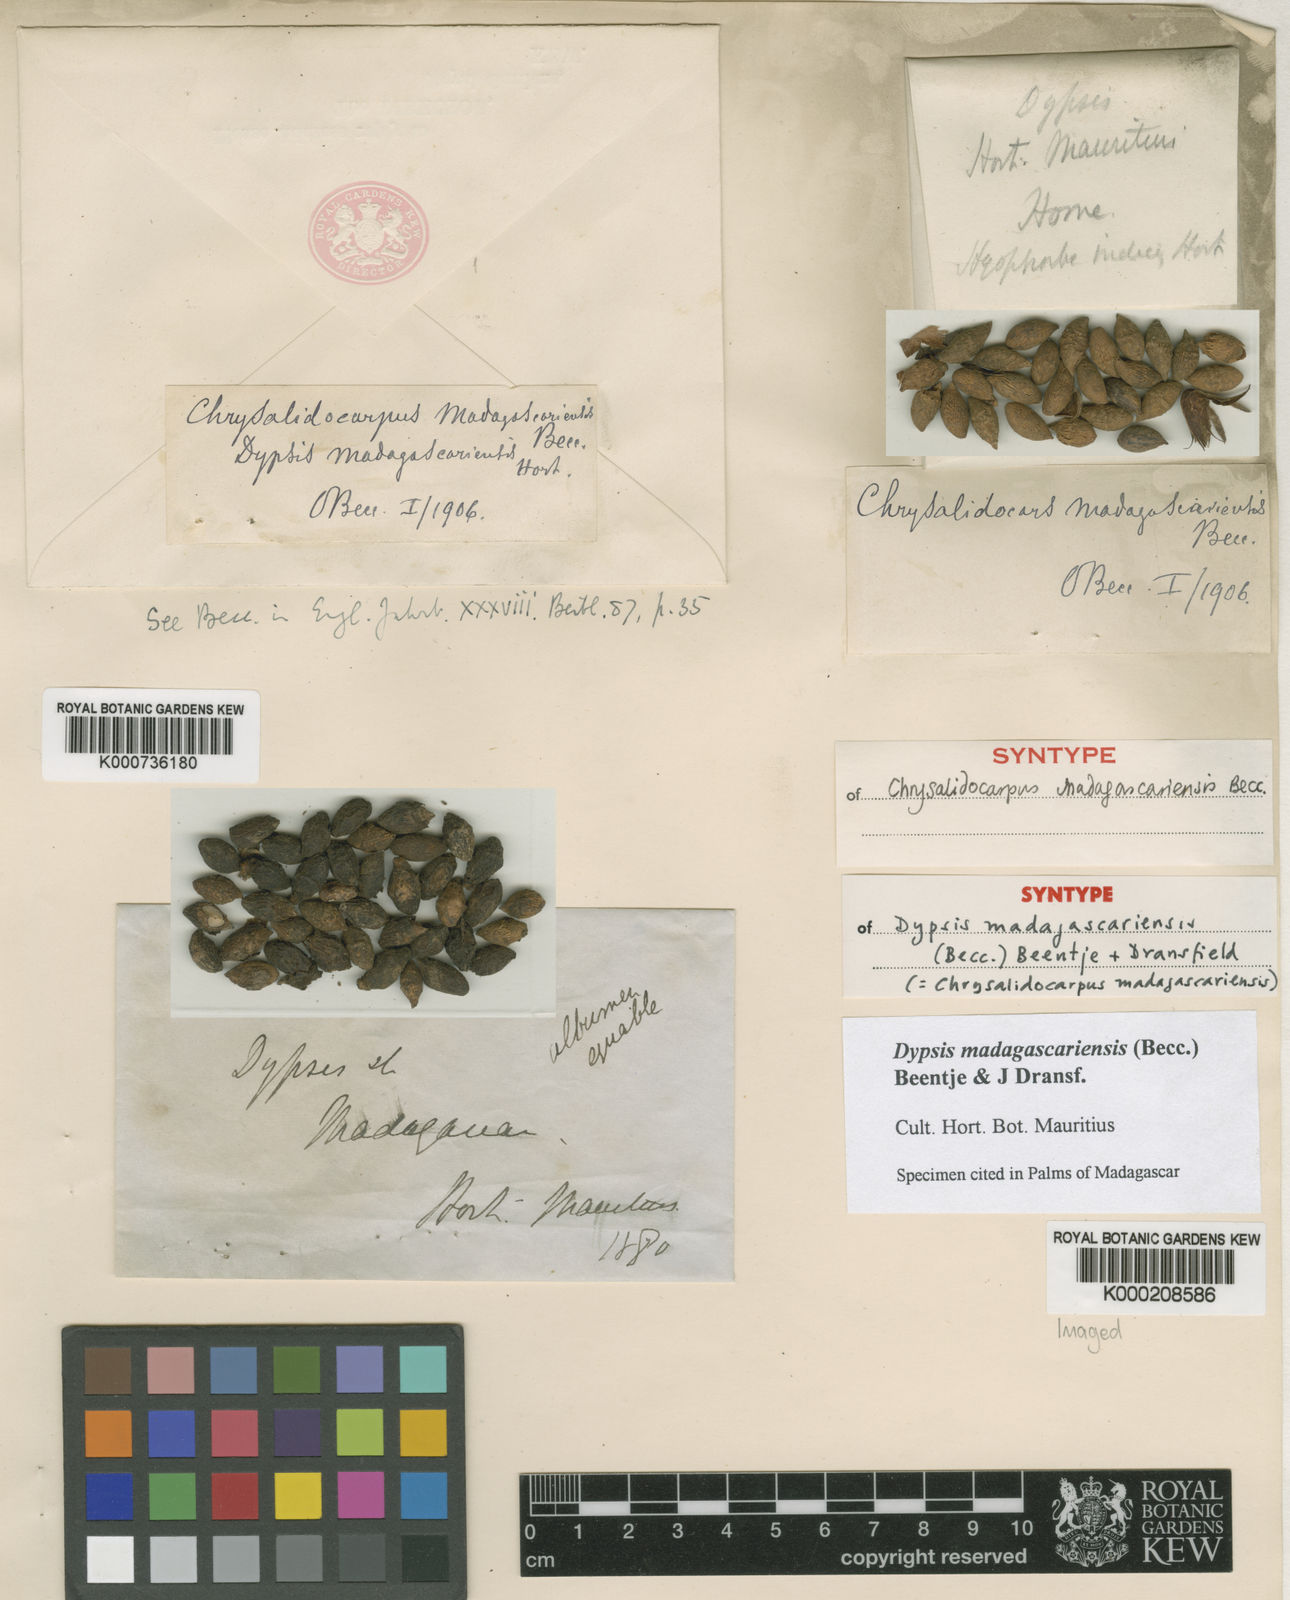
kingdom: Plantae
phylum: Tracheophyta
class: Liliopsida
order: Arecales
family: Arecaceae
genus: Dypsis
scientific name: Dypsis madagascariensis
